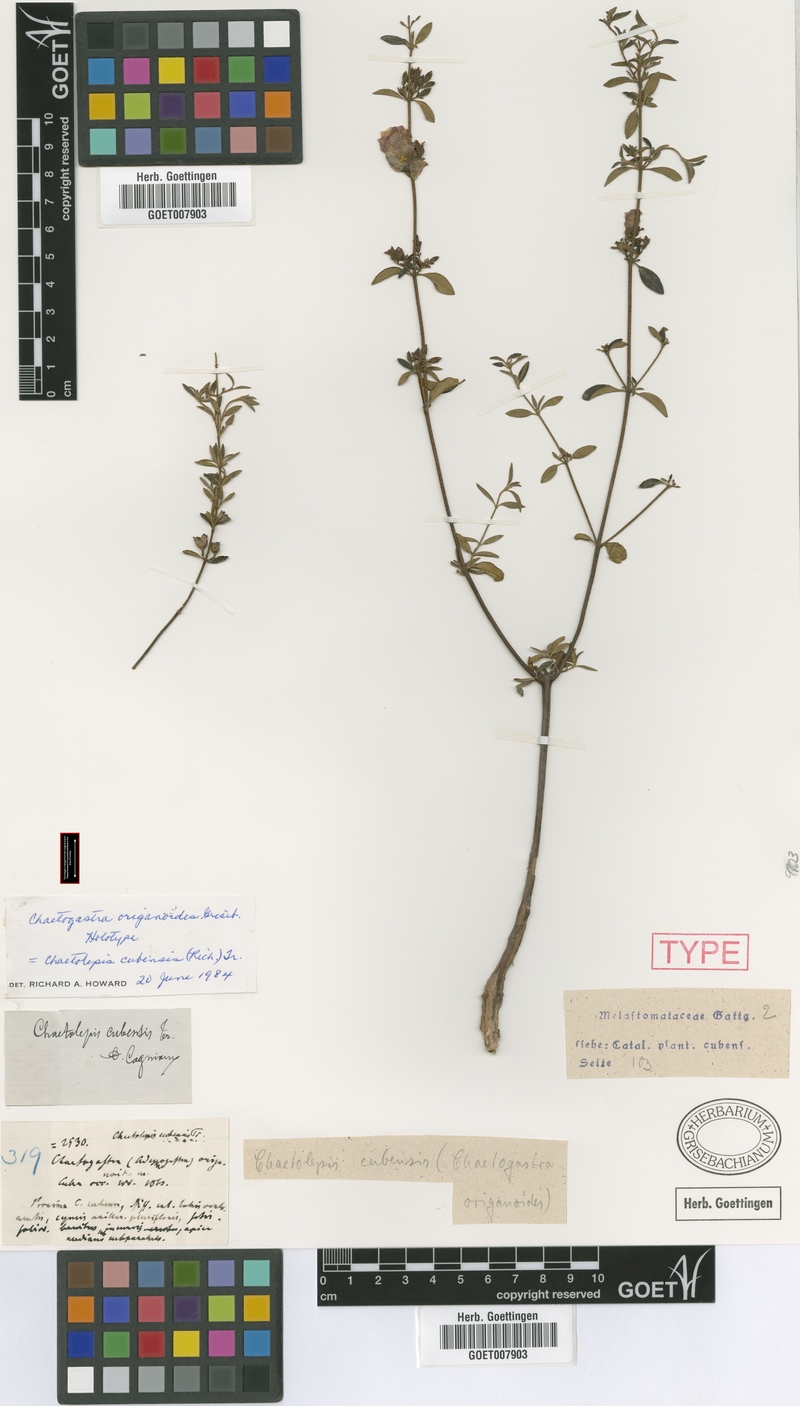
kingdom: Plantae
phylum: Tracheophyta
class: Magnoliopsida
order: Myrtales
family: Melastomataceae
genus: Chaetogastra
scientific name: Chaetogastra cubensis
